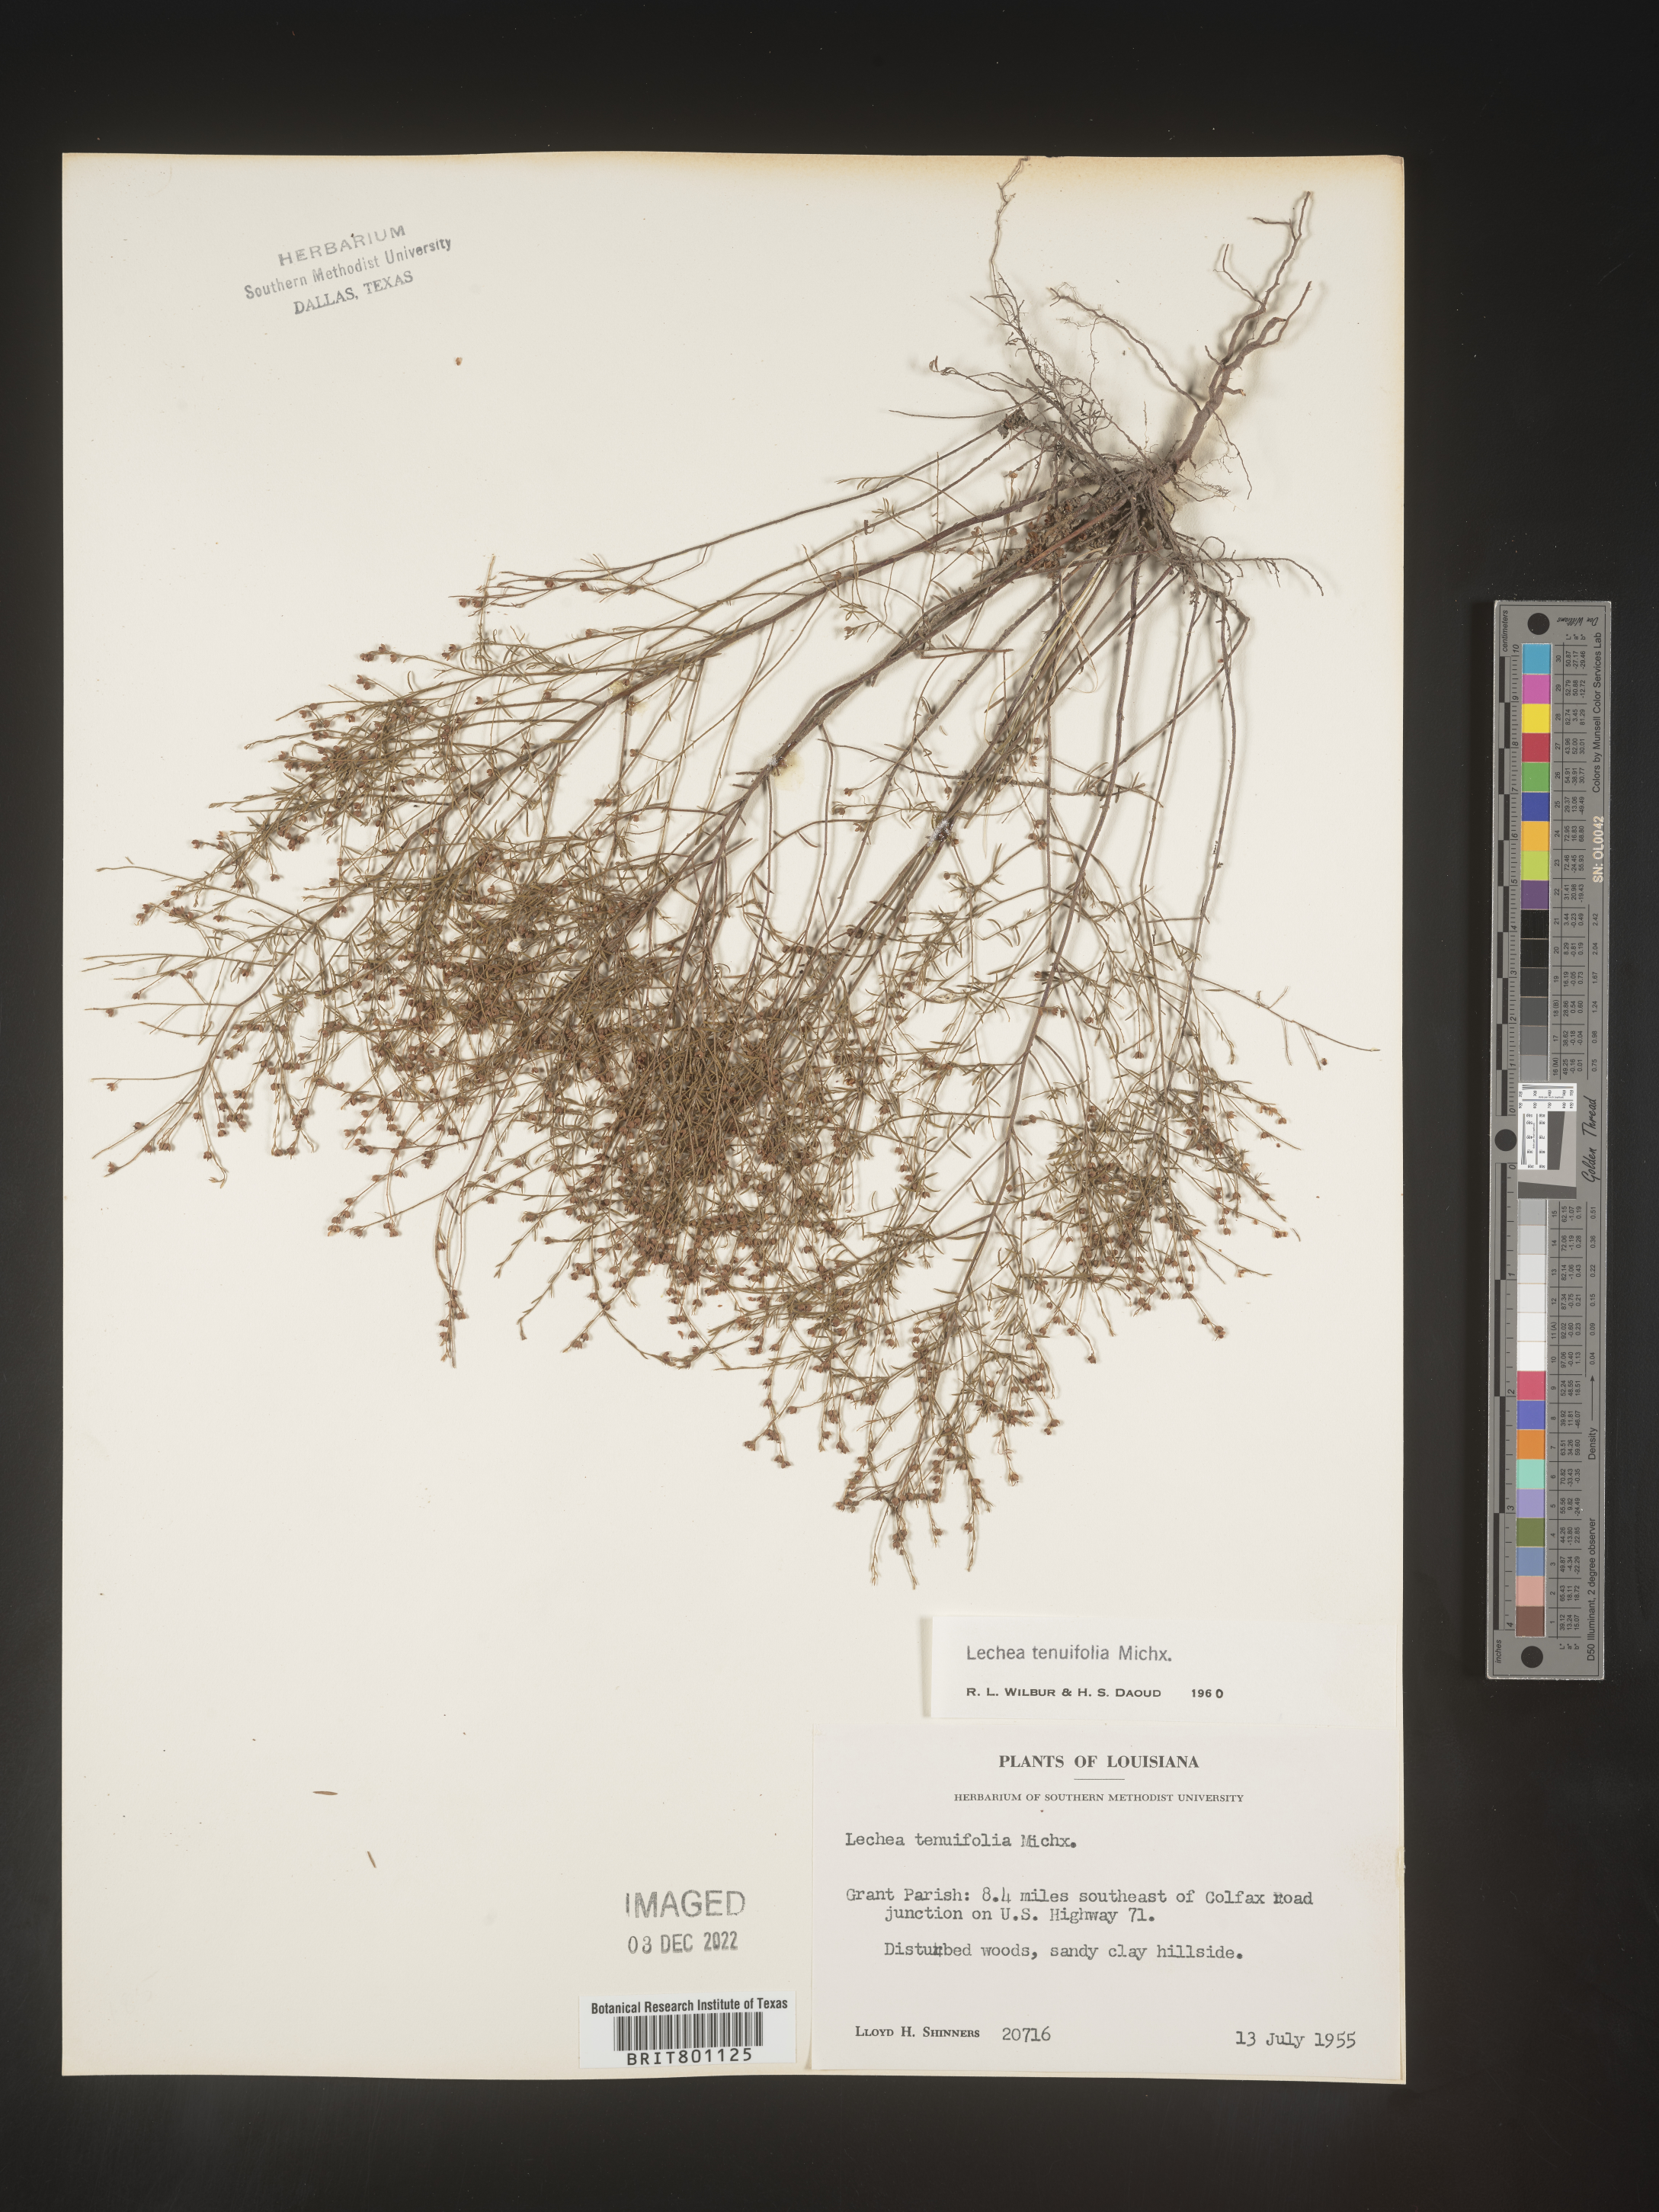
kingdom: Plantae
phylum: Tracheophyta
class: Magnoliopsida
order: Malvales
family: Cistaceae
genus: Lechea
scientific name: Lechea tenuifolia
